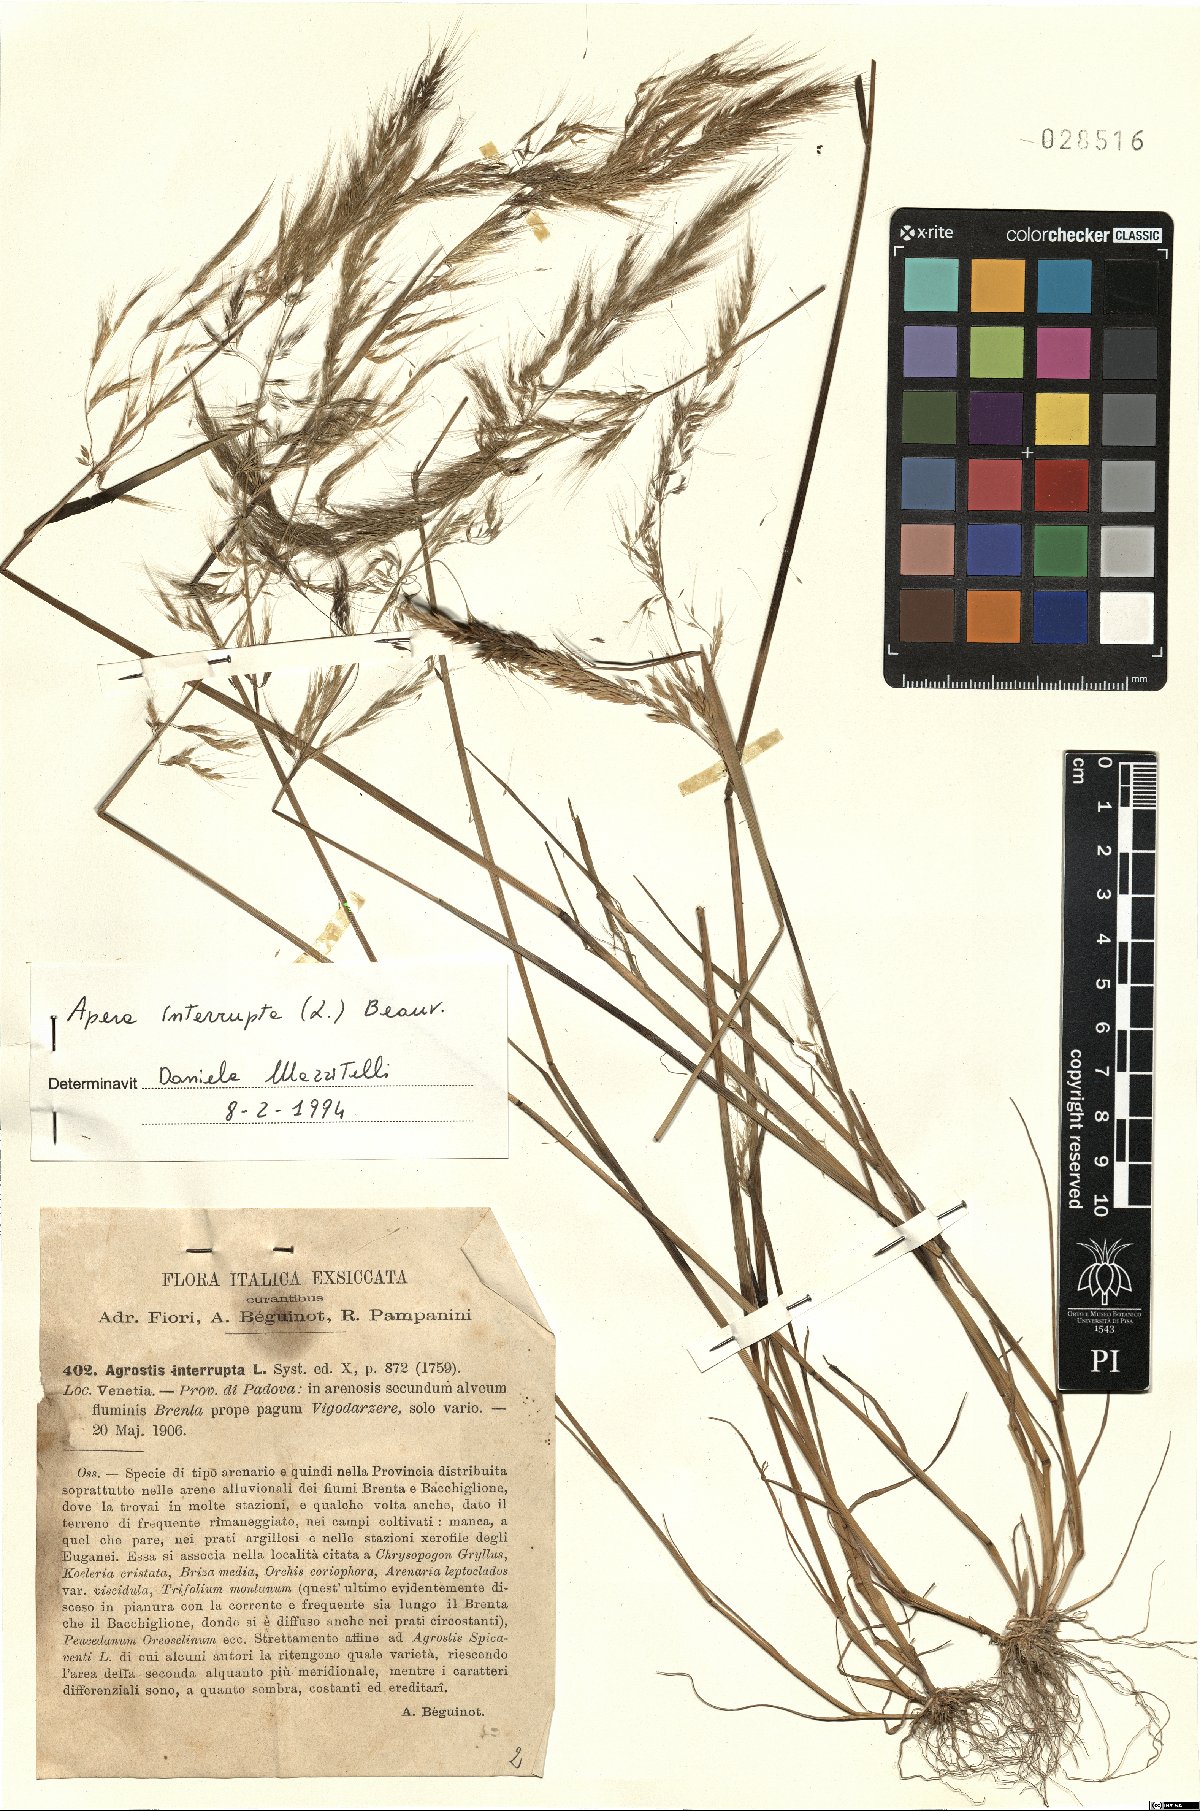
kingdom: Plantae
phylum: Tracheophyta
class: Liliopsida
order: Poales
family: Poaceae
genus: Apera
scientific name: Apera interrupta
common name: Dense silky-bent
